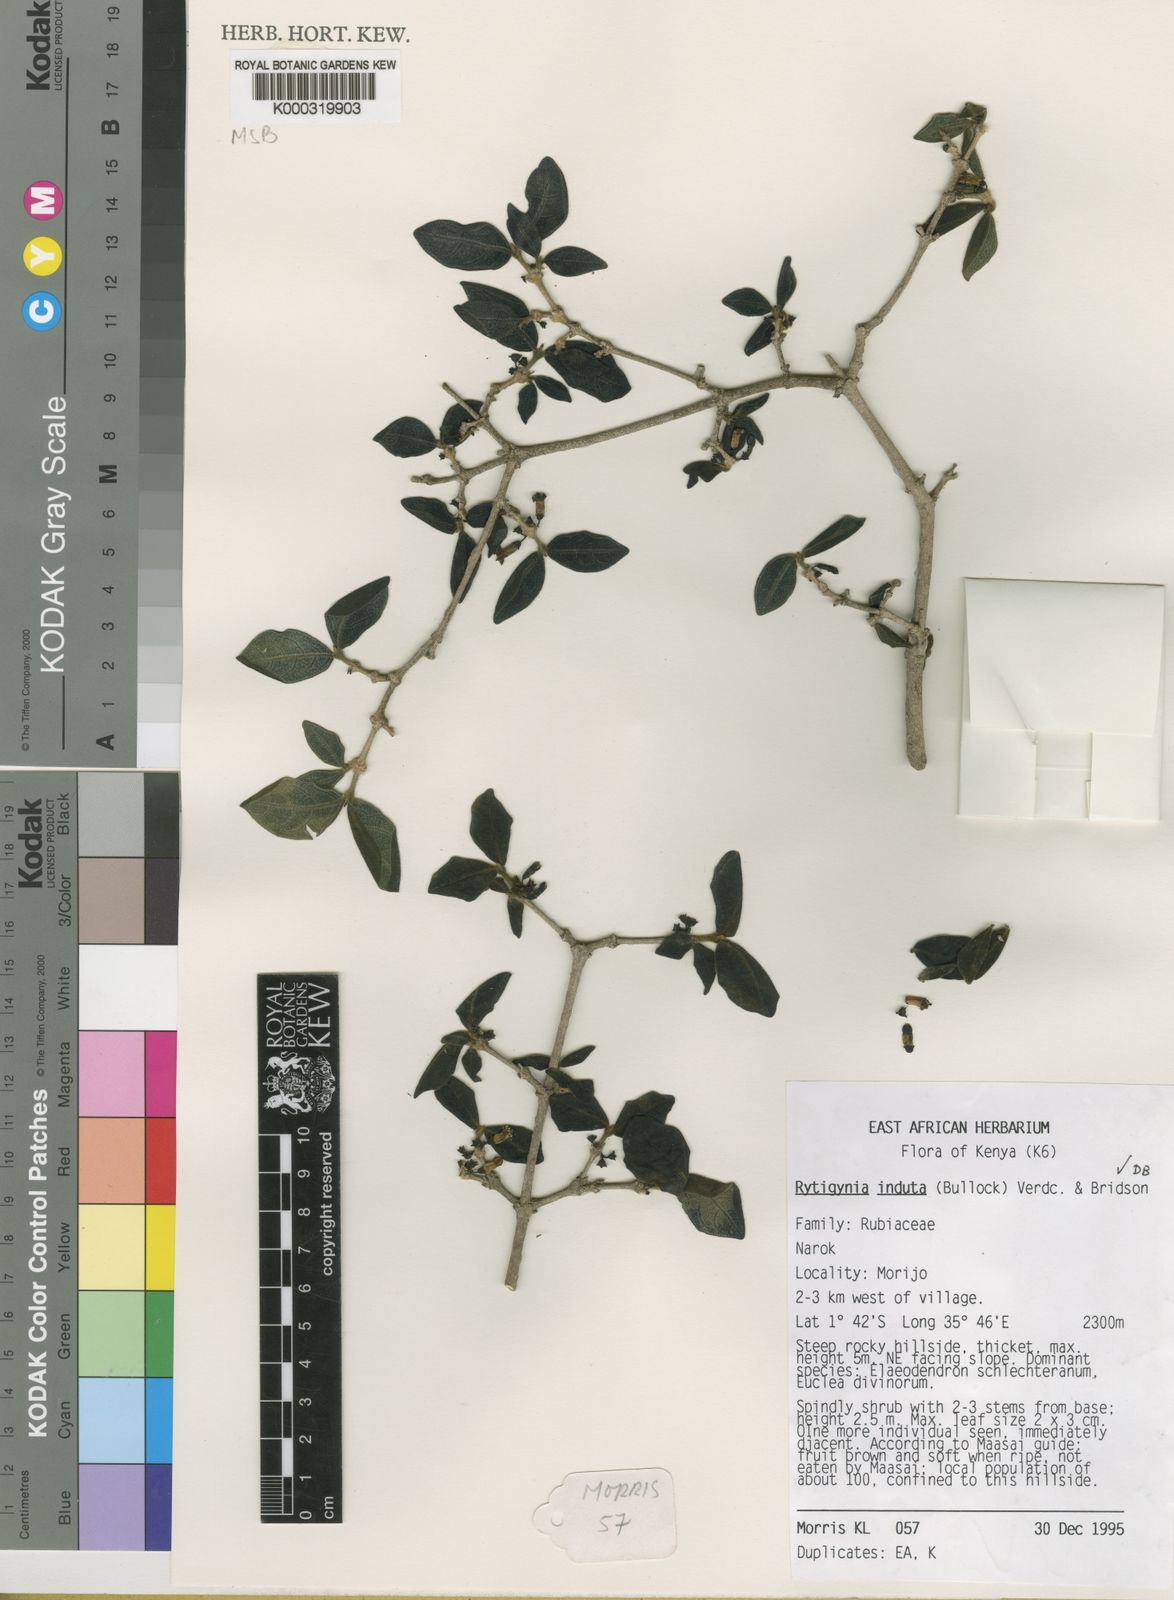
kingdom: Plantae
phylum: Tracheophyta
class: Magnoliopsida
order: Gentianales
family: Rubiaceae
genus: Vangueria
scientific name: Vangueria induta
